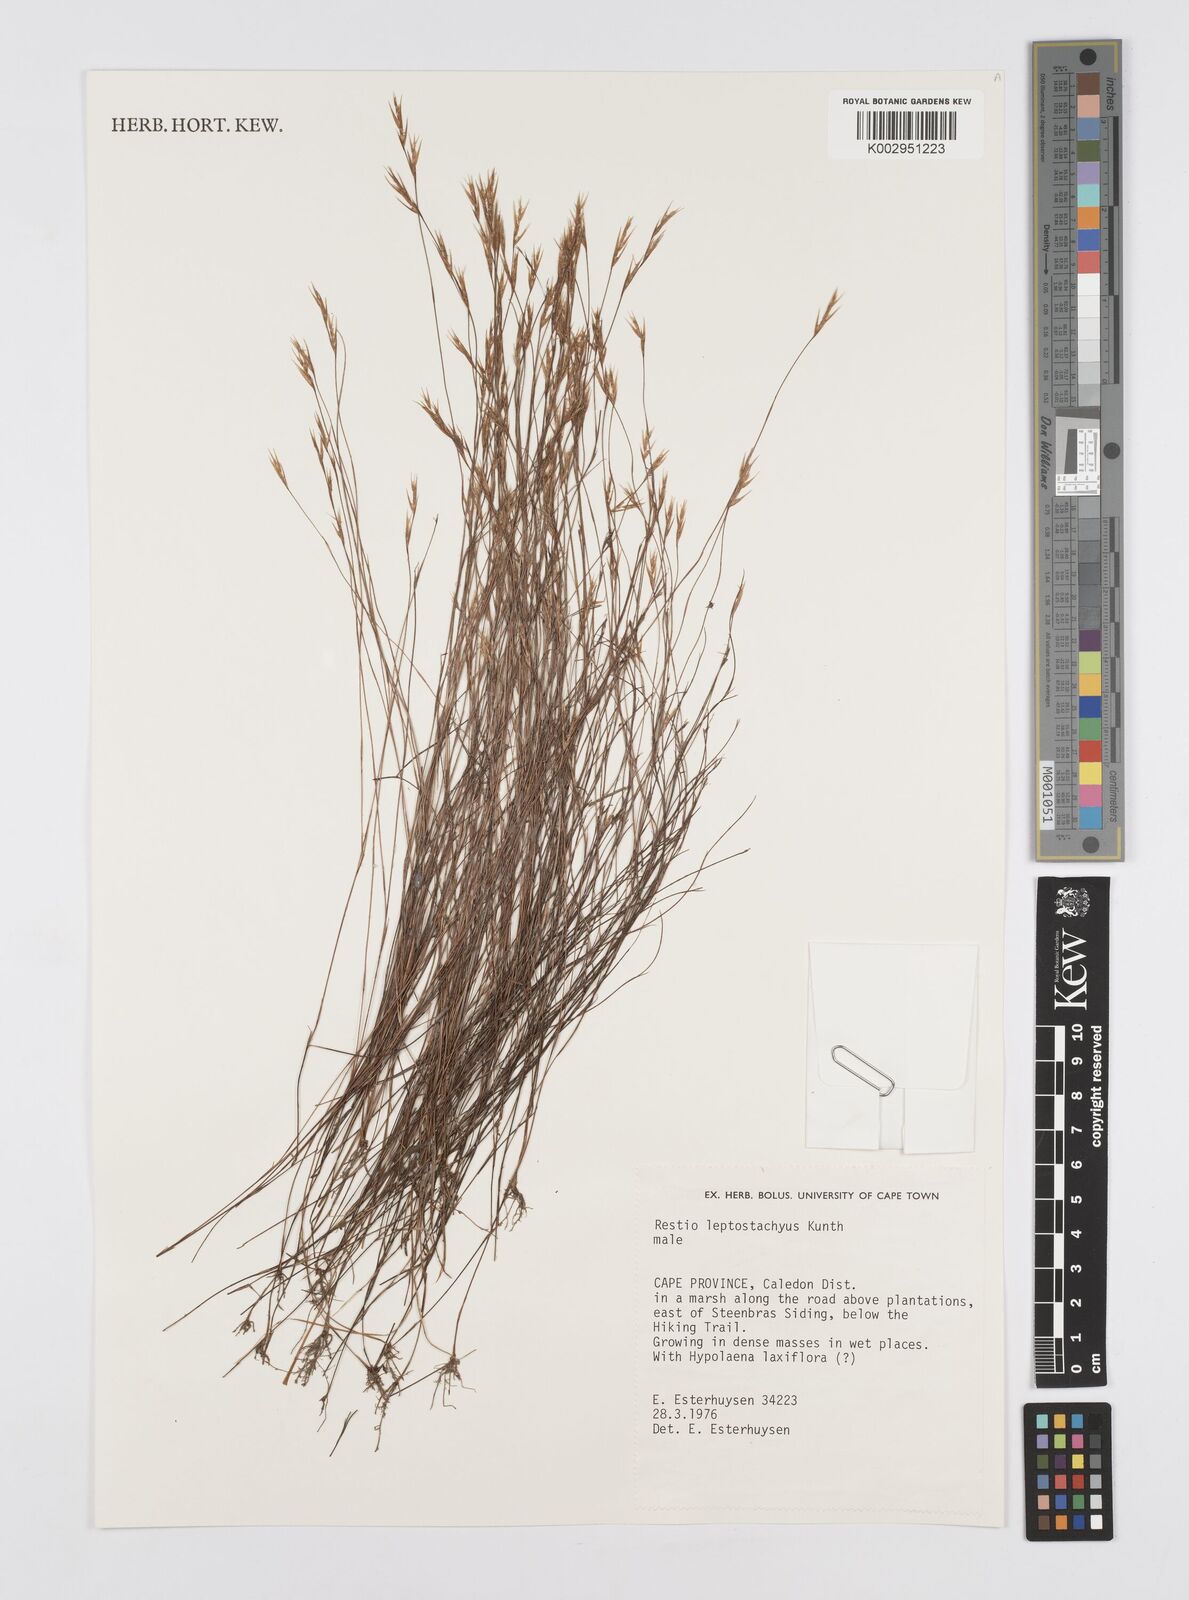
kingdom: Plantae
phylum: Tracheophyta
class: Liliopsida
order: Poales
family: Restionaceae
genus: Restio
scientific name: Restio leptostachyus
